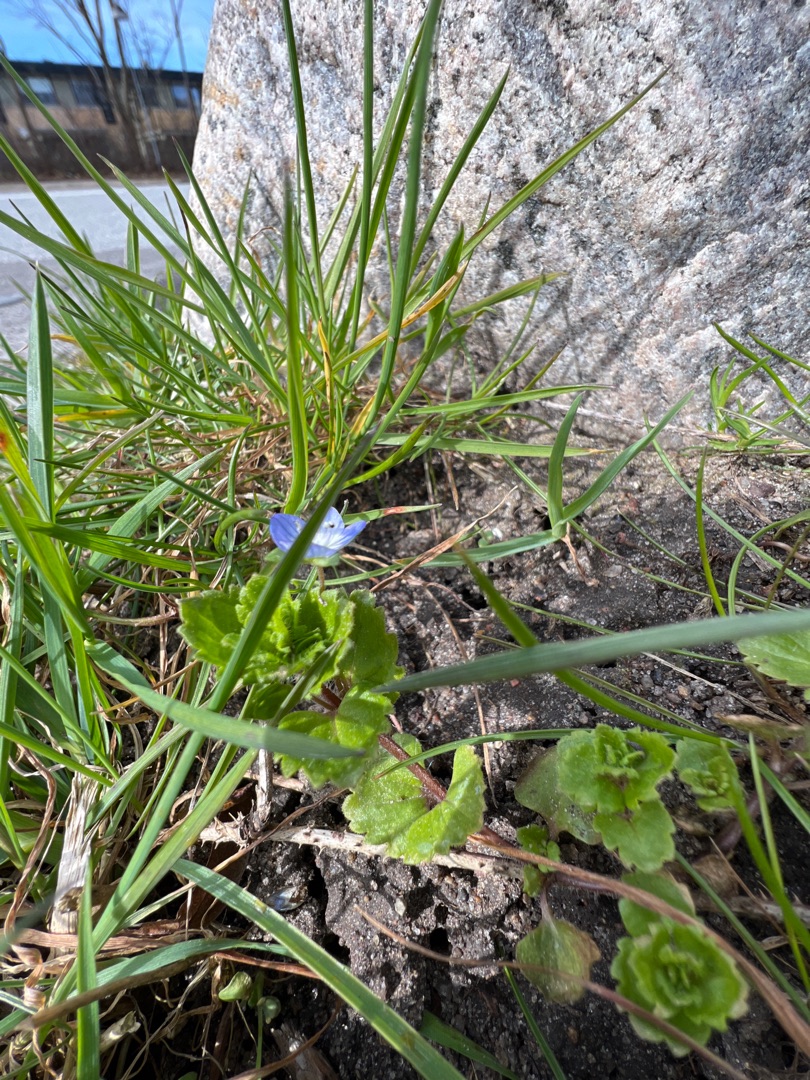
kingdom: Plantae
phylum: Tracheophyta
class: Magnoliopsida
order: Lamiales
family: Plantaginaceae
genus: Veronica
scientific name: Veronica persica
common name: Storkronet ærenpris
